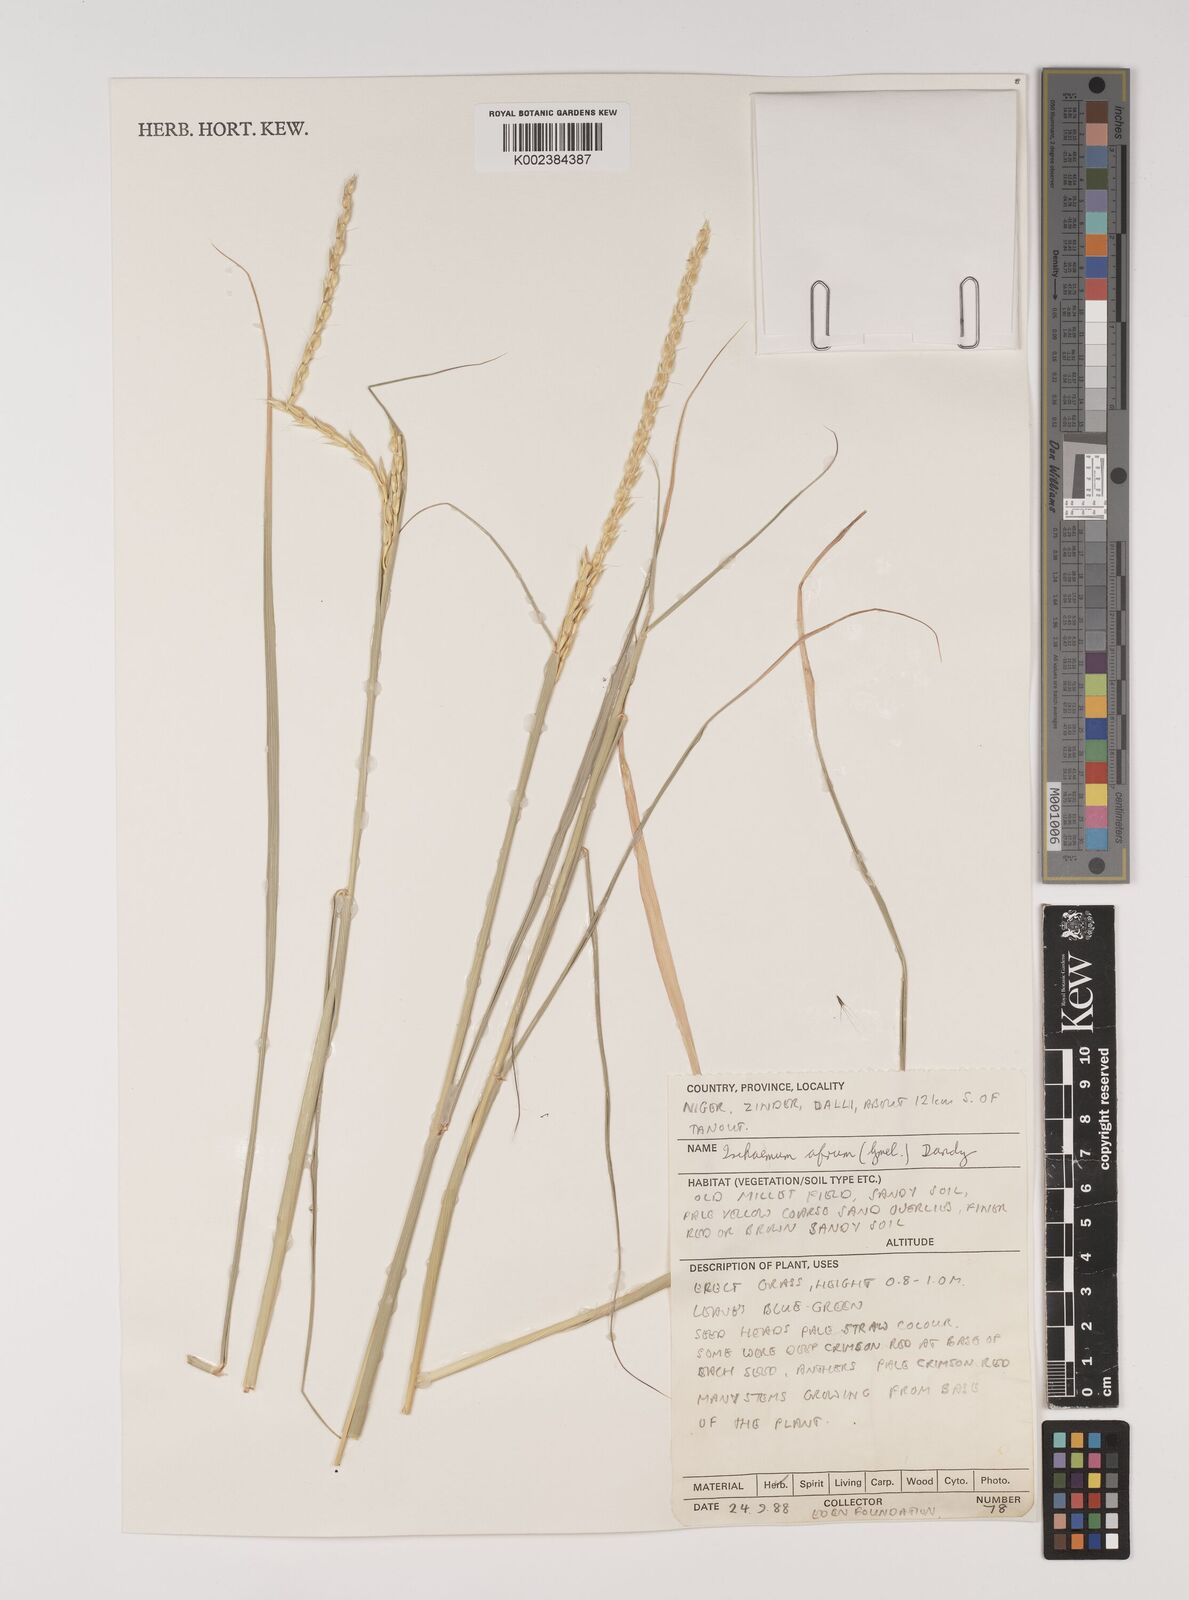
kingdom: Plantae
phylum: Tracheophyta
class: Liliopsida
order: Poales
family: Poaceae
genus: Ischaemum
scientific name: Ischaemum afrum
